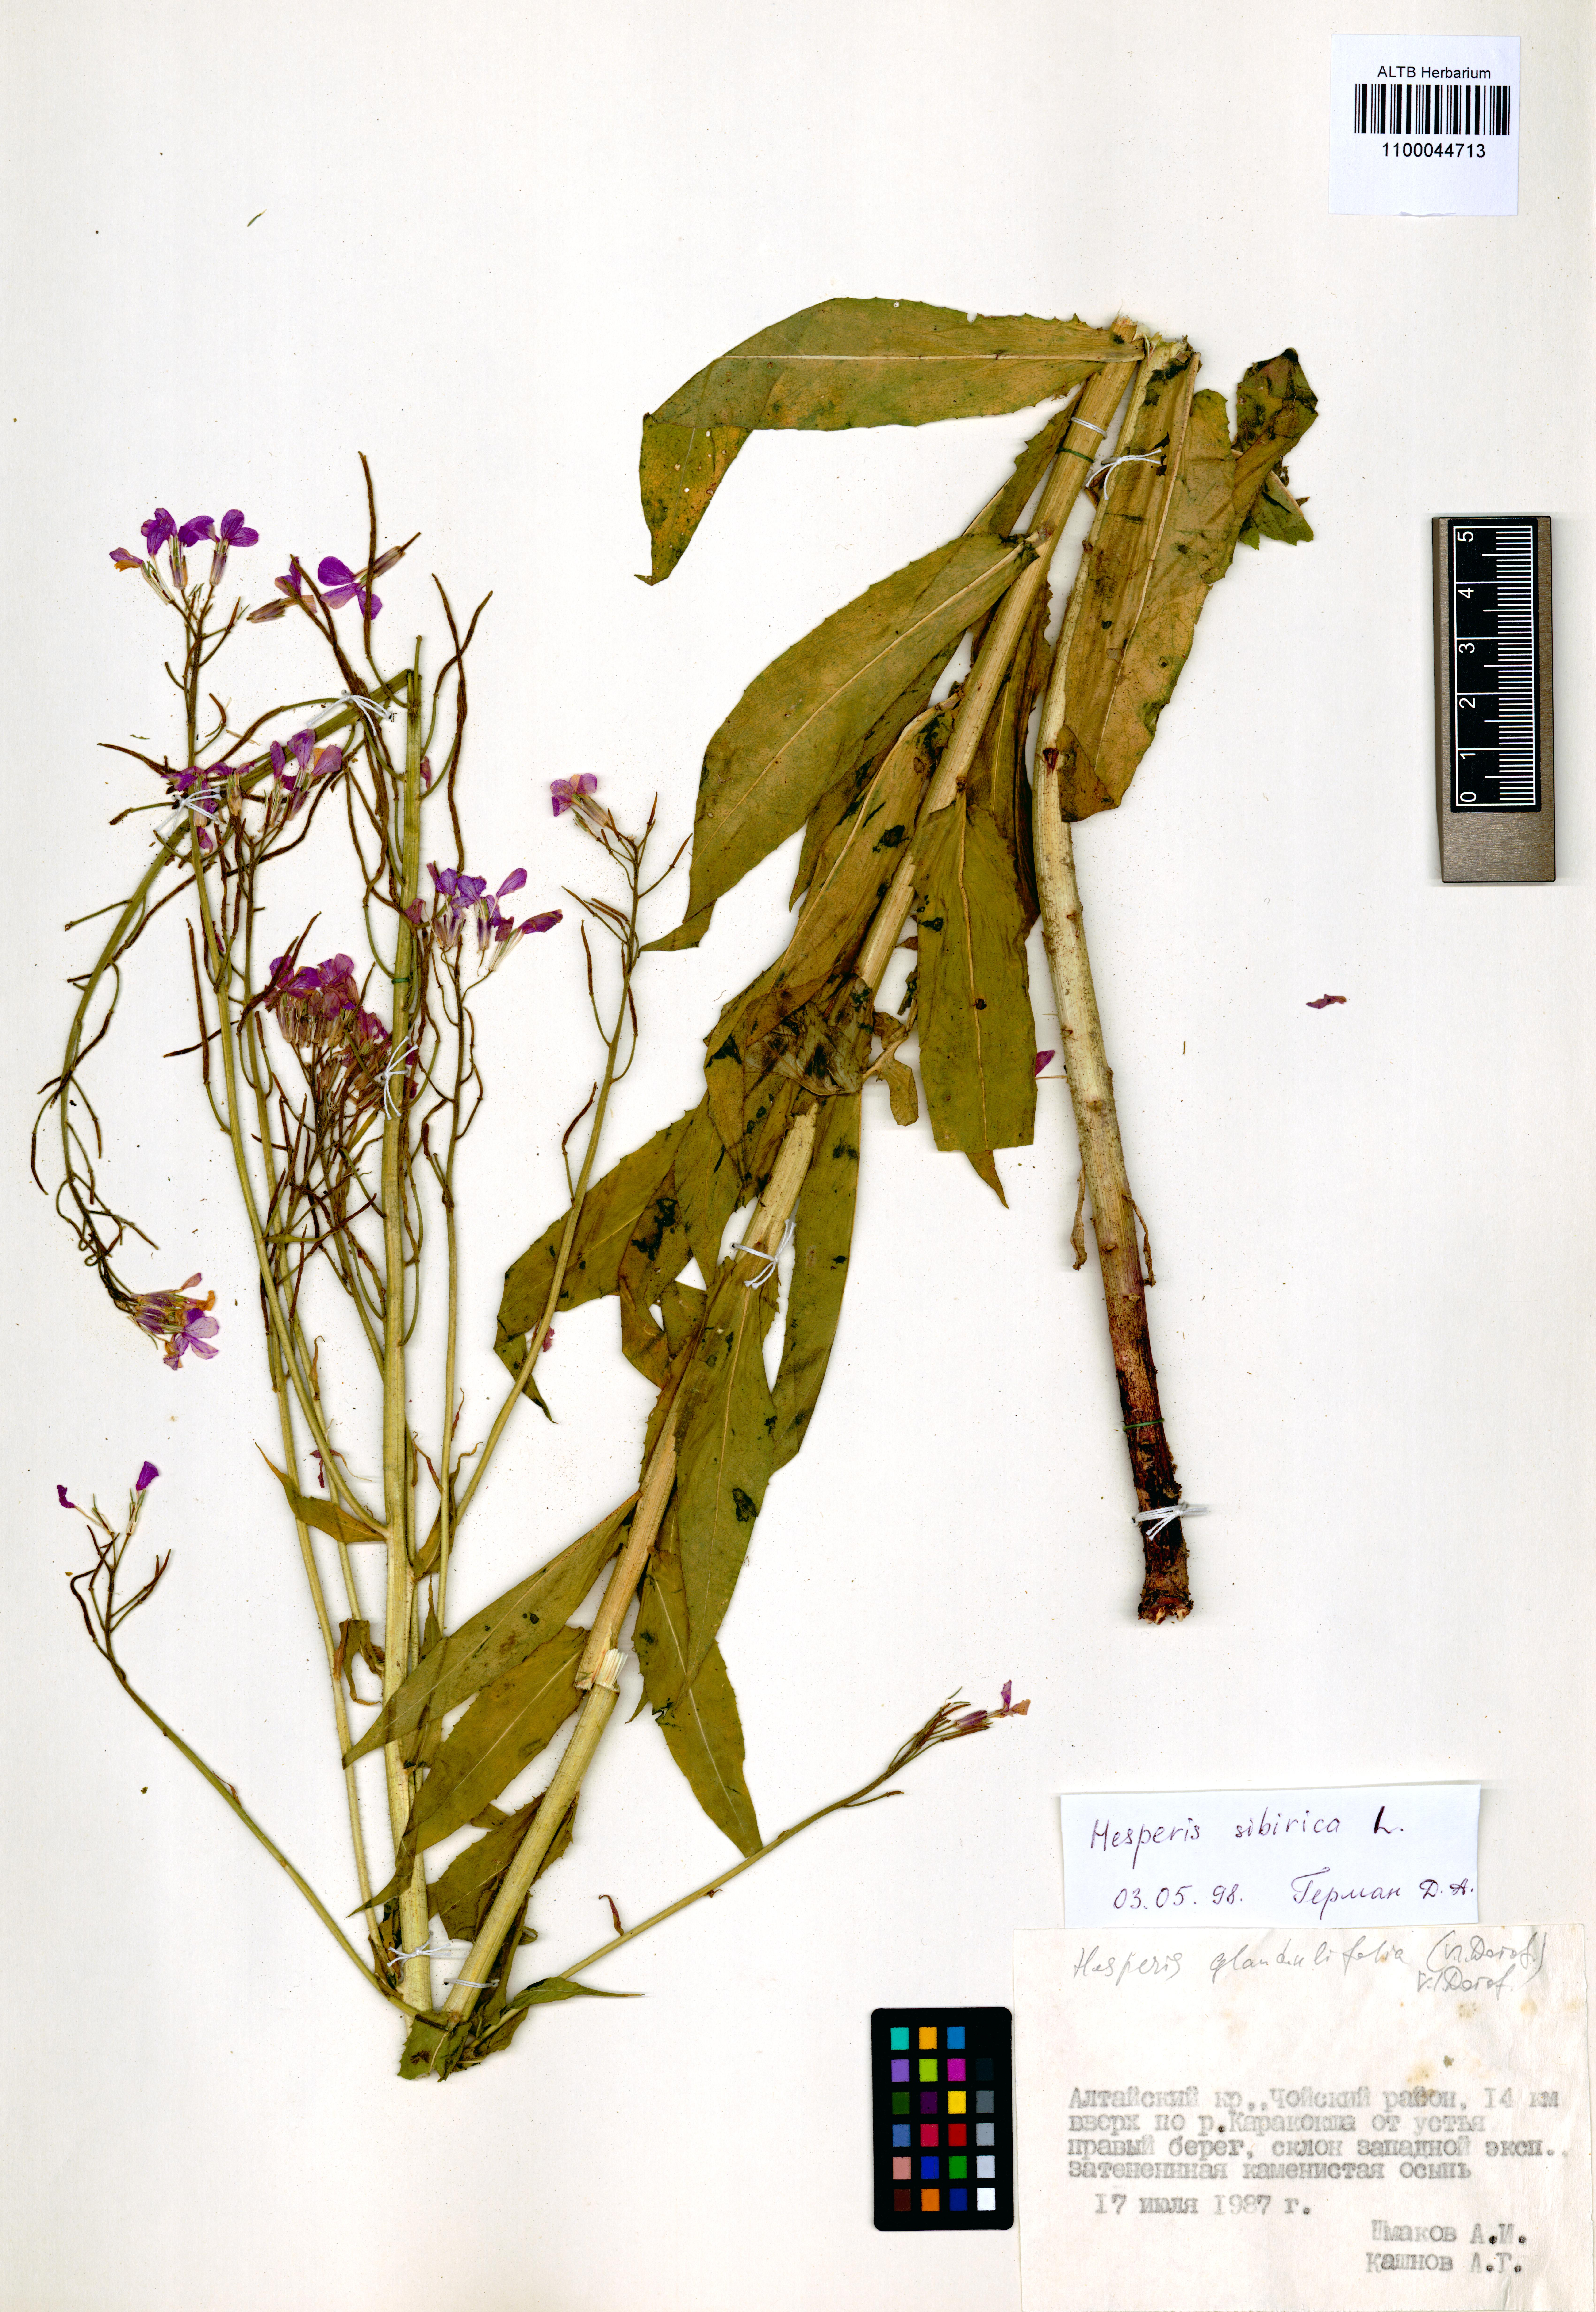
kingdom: Plantae
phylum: Tracheophyta
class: Magnoliopsida
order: Brassicales
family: Brassicaceae
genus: Hesperis
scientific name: Hesperis sibirica
